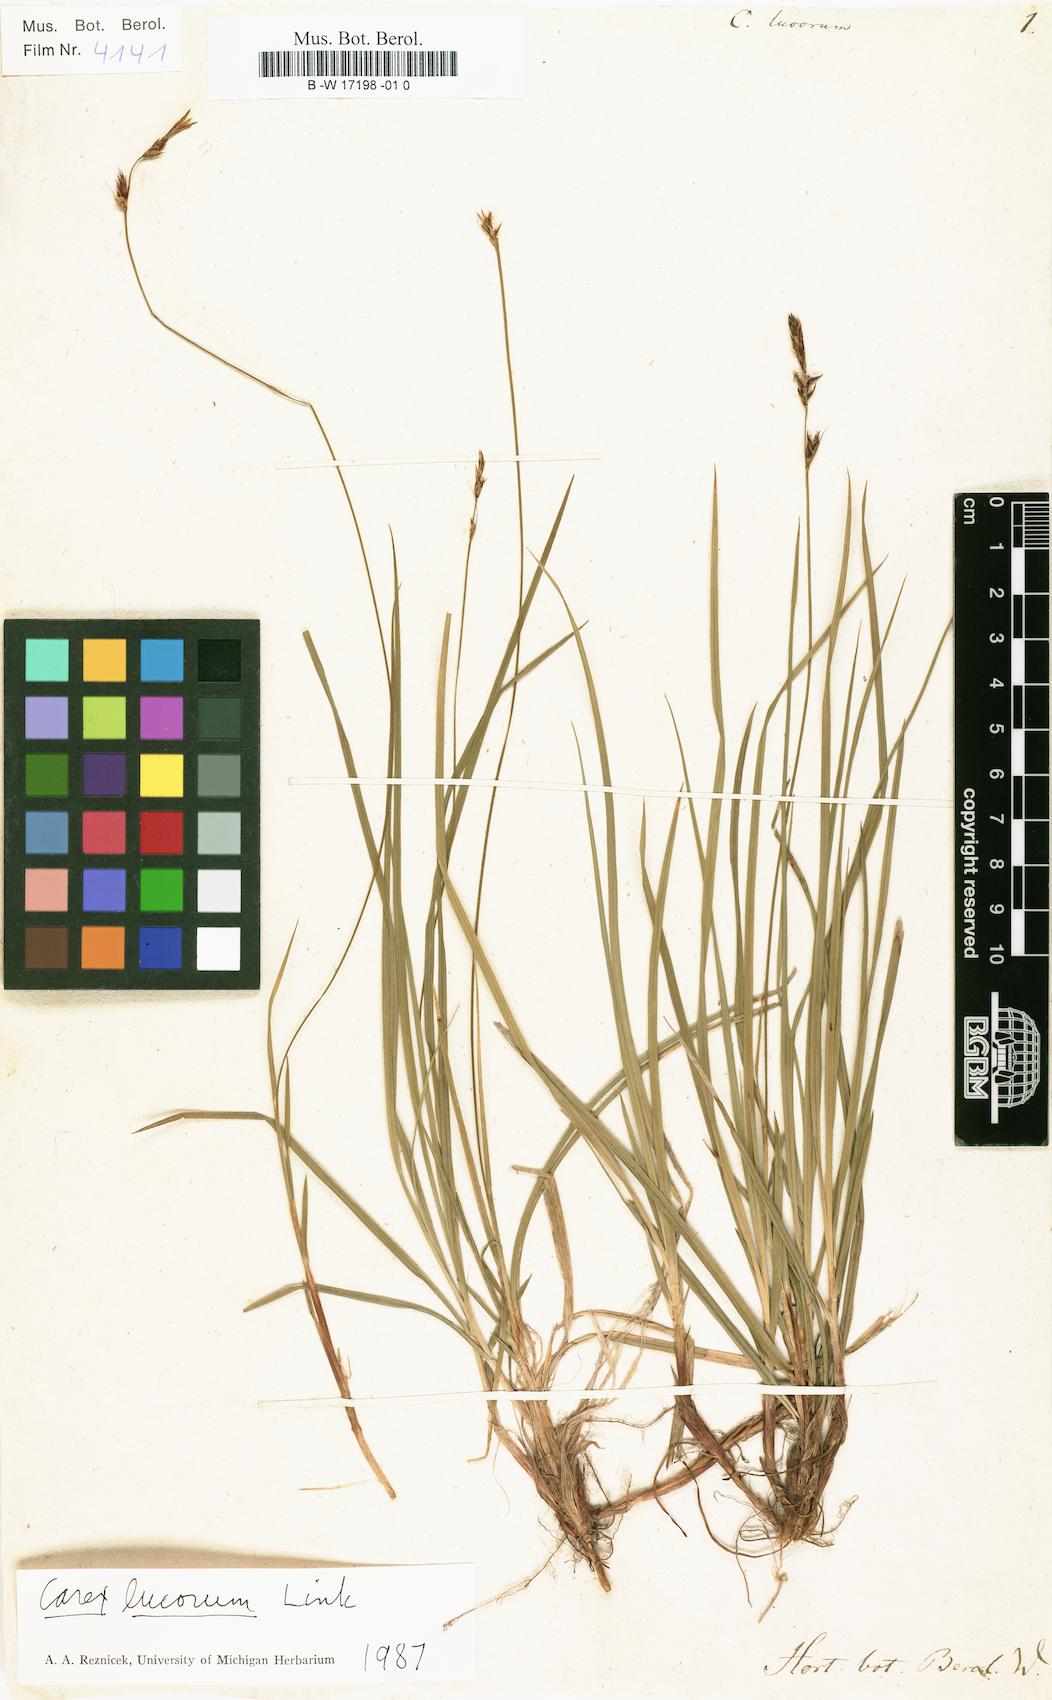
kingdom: Plantae
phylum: Tracheophyta
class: Liliopsida
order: Poales
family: Cyperaceae
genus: Carex
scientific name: Carex nigromarginata
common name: Black-edged sedge
